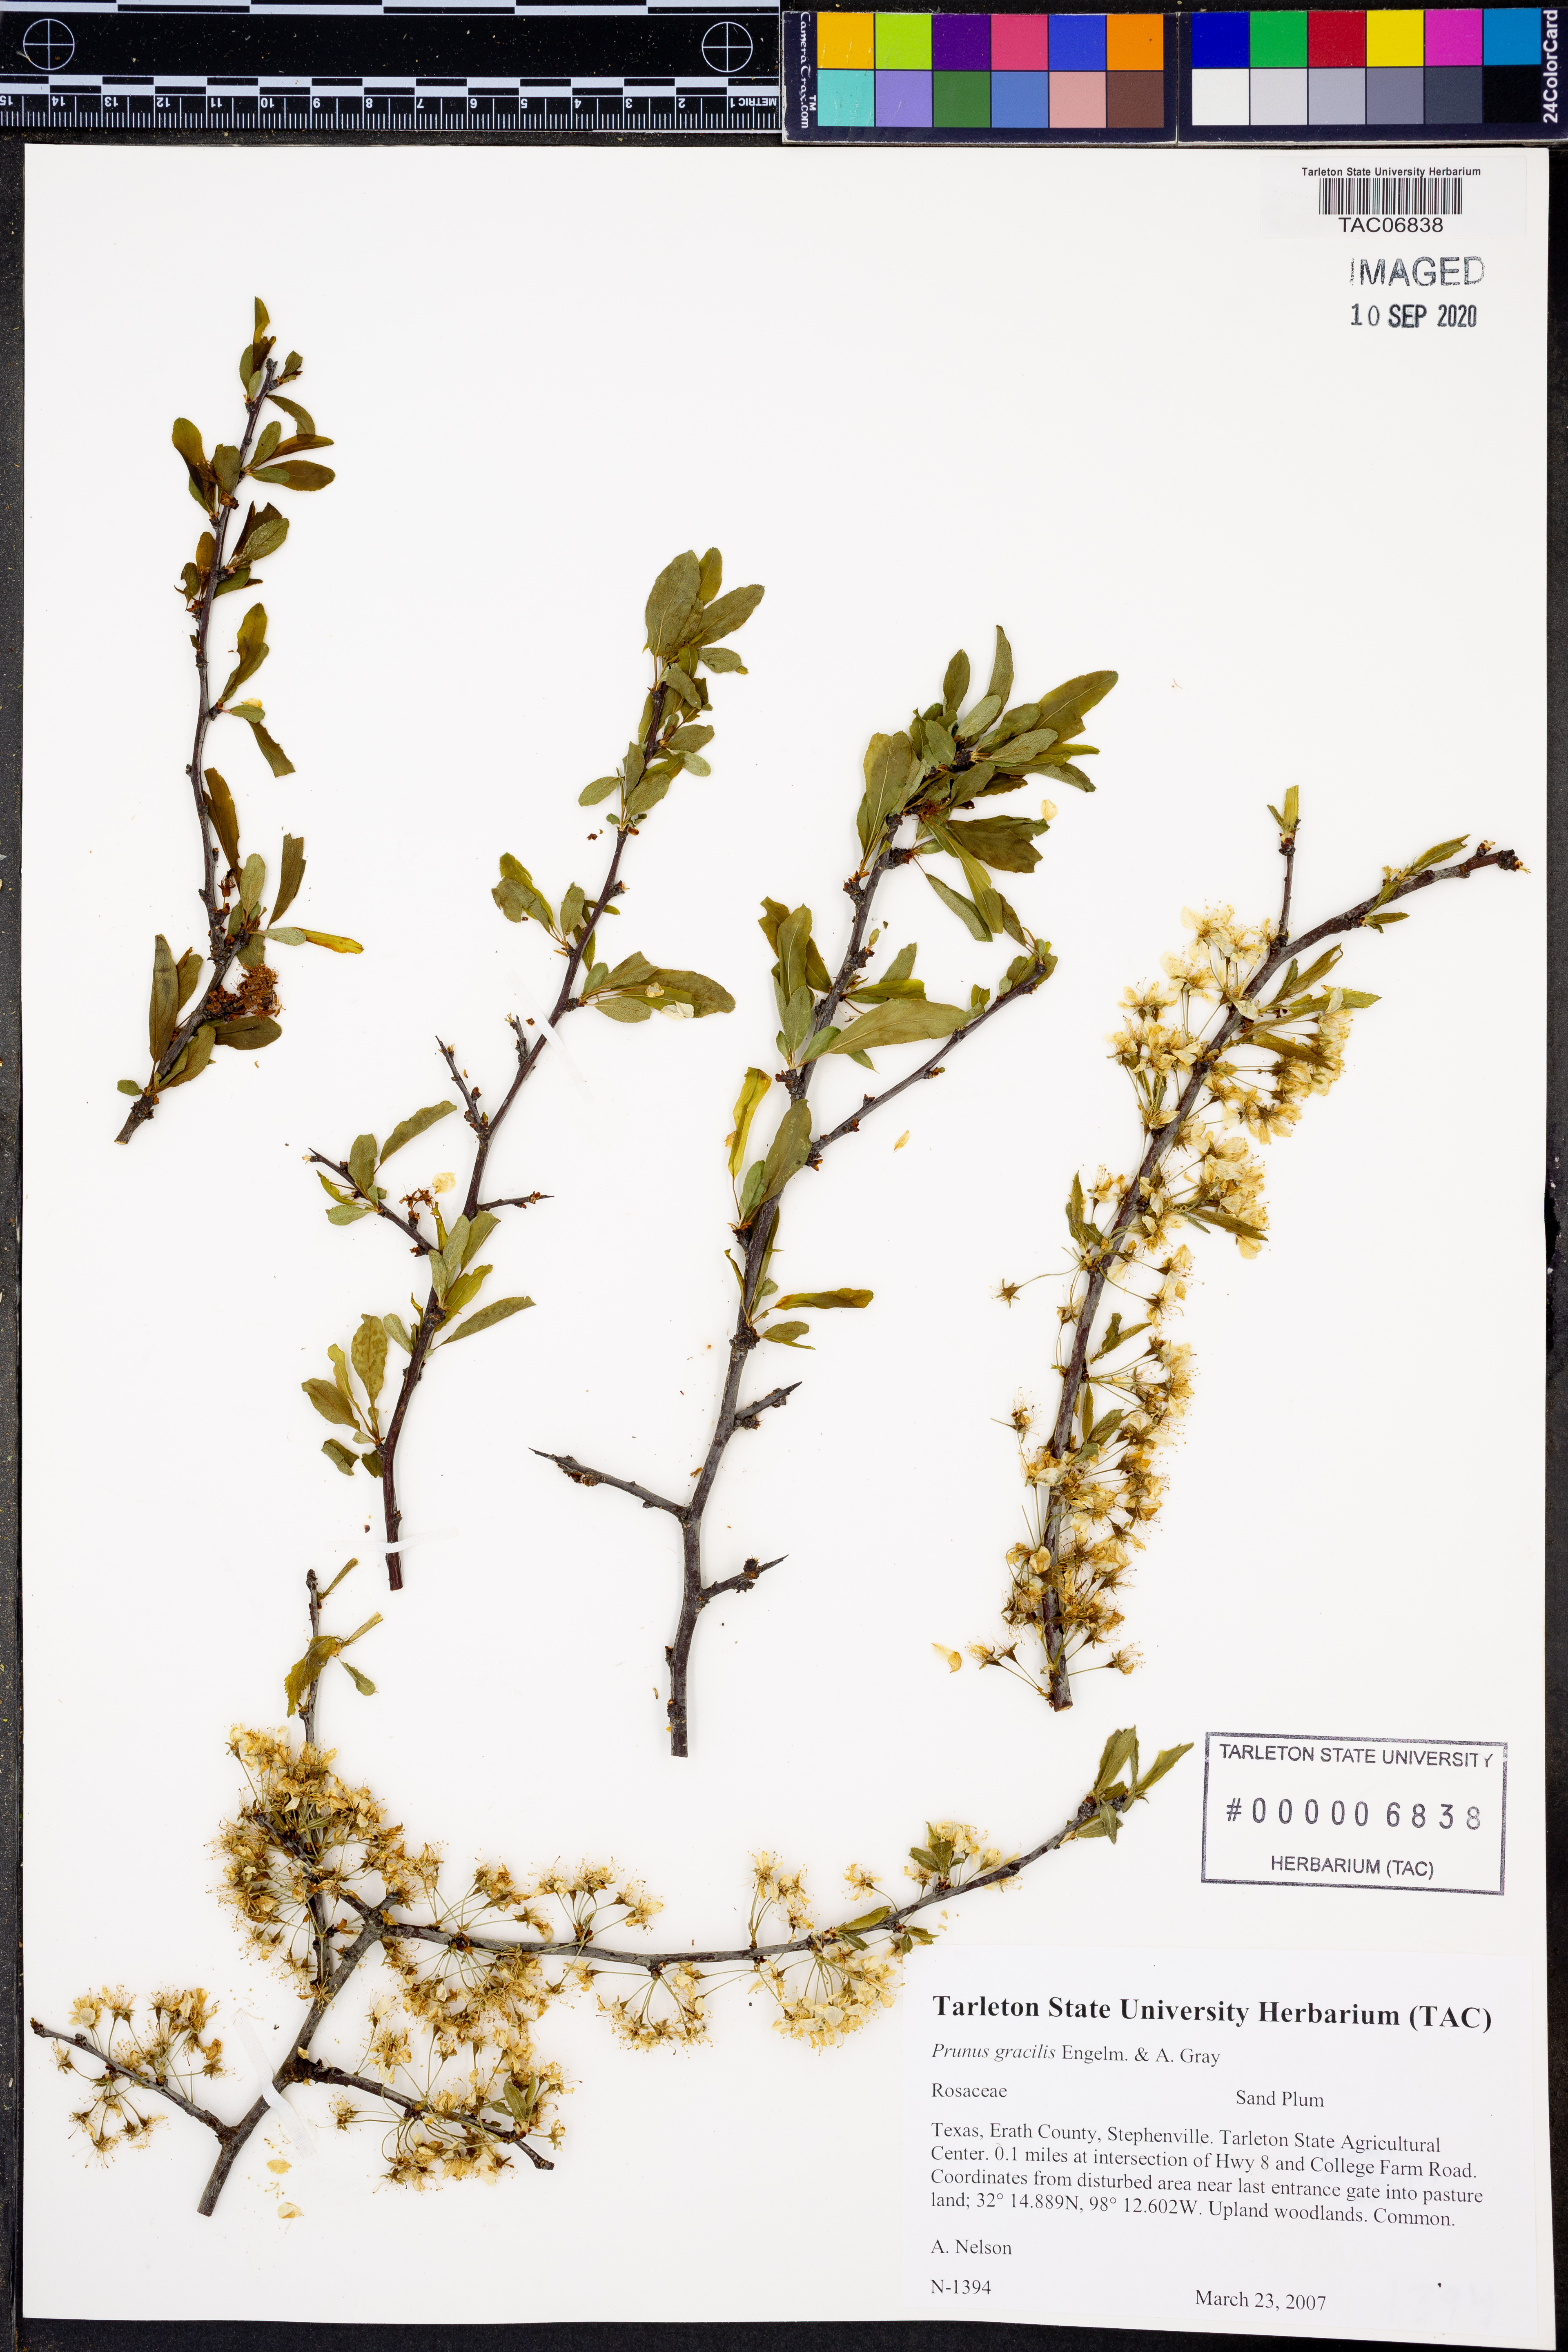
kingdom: Plantae
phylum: Tracheophyta
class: Magnoliopsida
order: Rosales
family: Rosaceae
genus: Prunus
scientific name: Prunus gracilis
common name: Oklahoma plum
